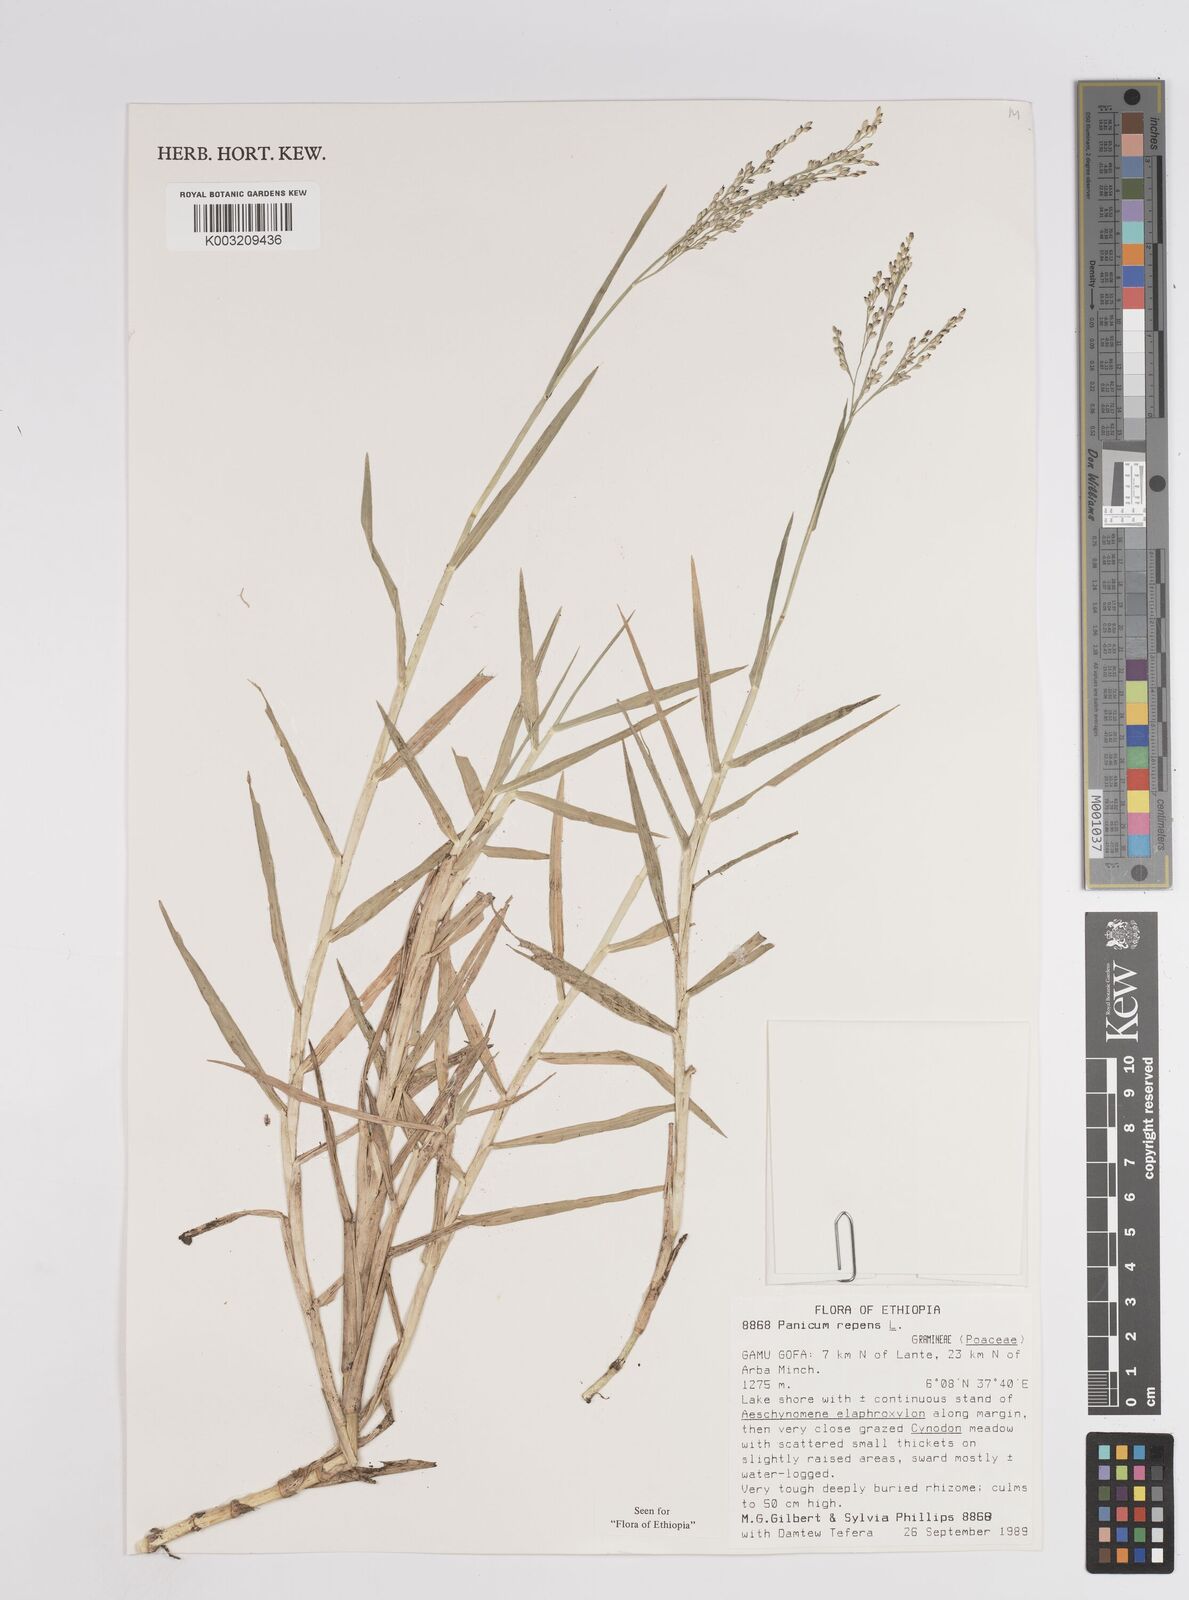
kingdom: Plantae
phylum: Tracheophyta
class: Liliopsida
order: Poales
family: Poaceae
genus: Panicum
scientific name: Panicum repens
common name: Torpedo grass
